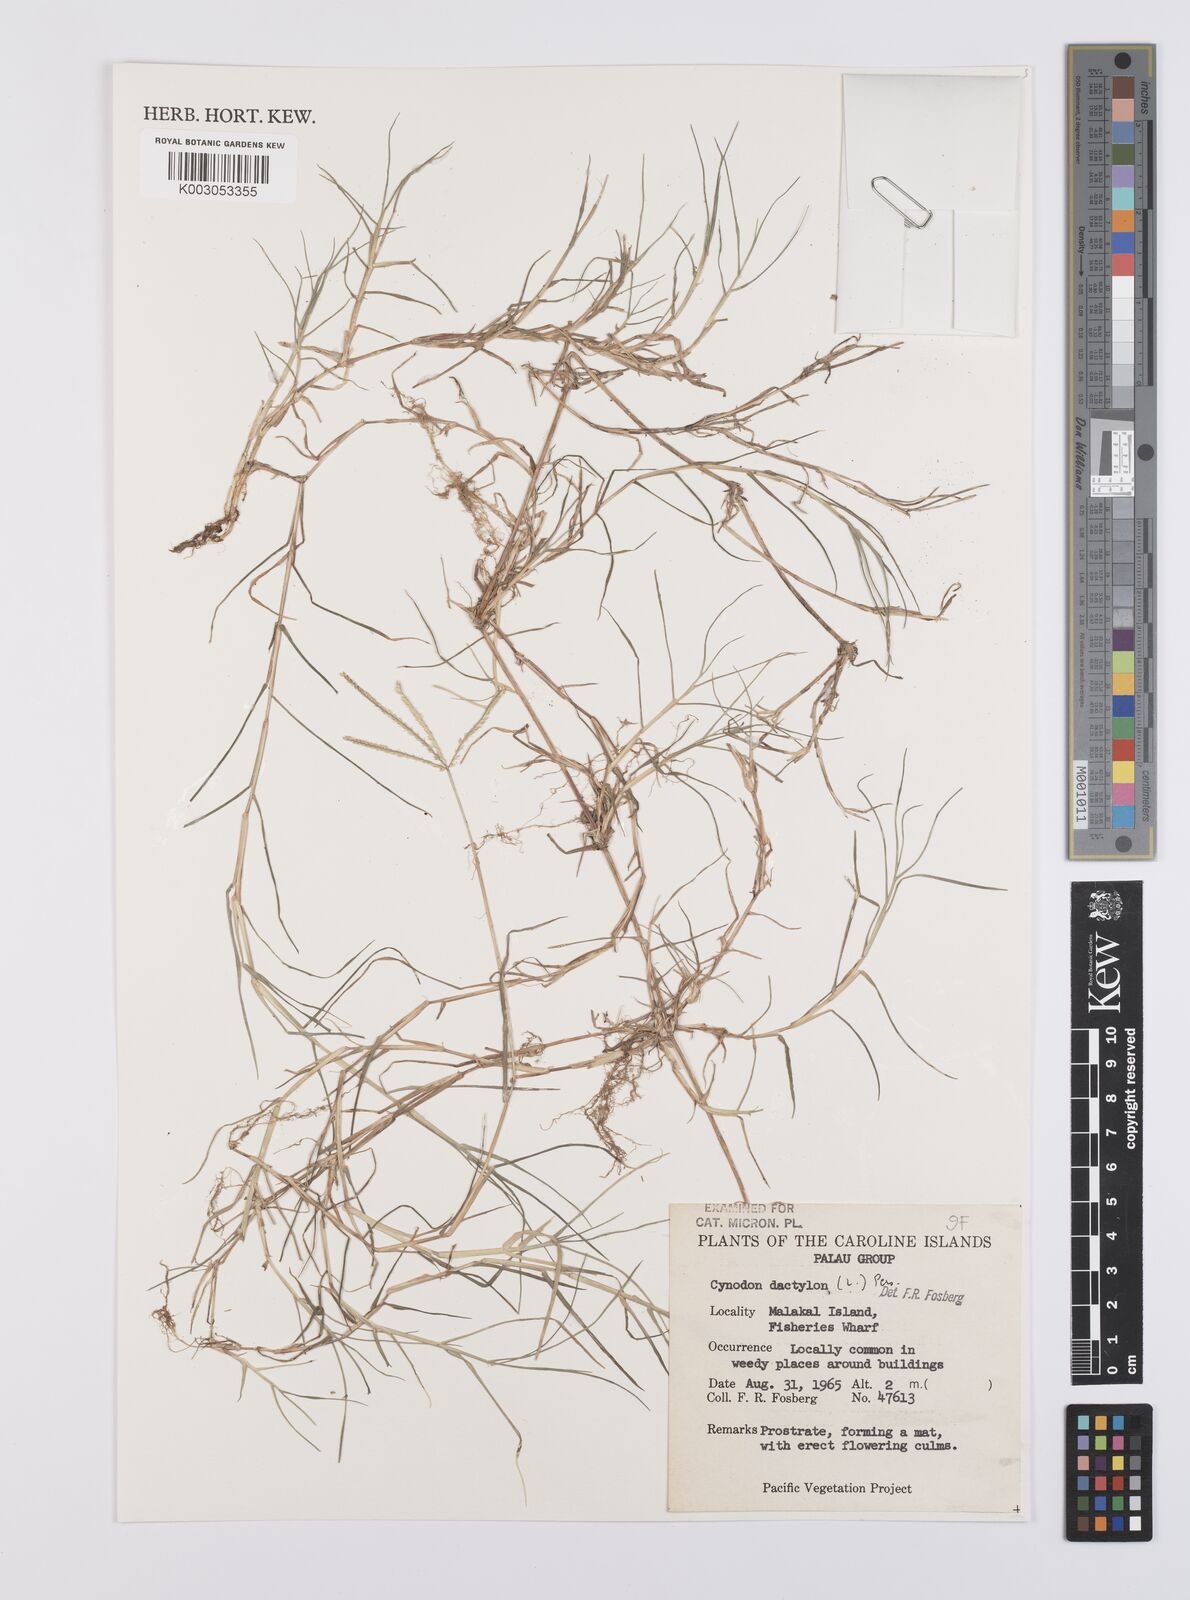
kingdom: Plantae
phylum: Tracheophyta
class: Liliopsida
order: Poales
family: Poaceae
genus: Cynodon
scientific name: Cynodon dactylon
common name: Bermuda grass
